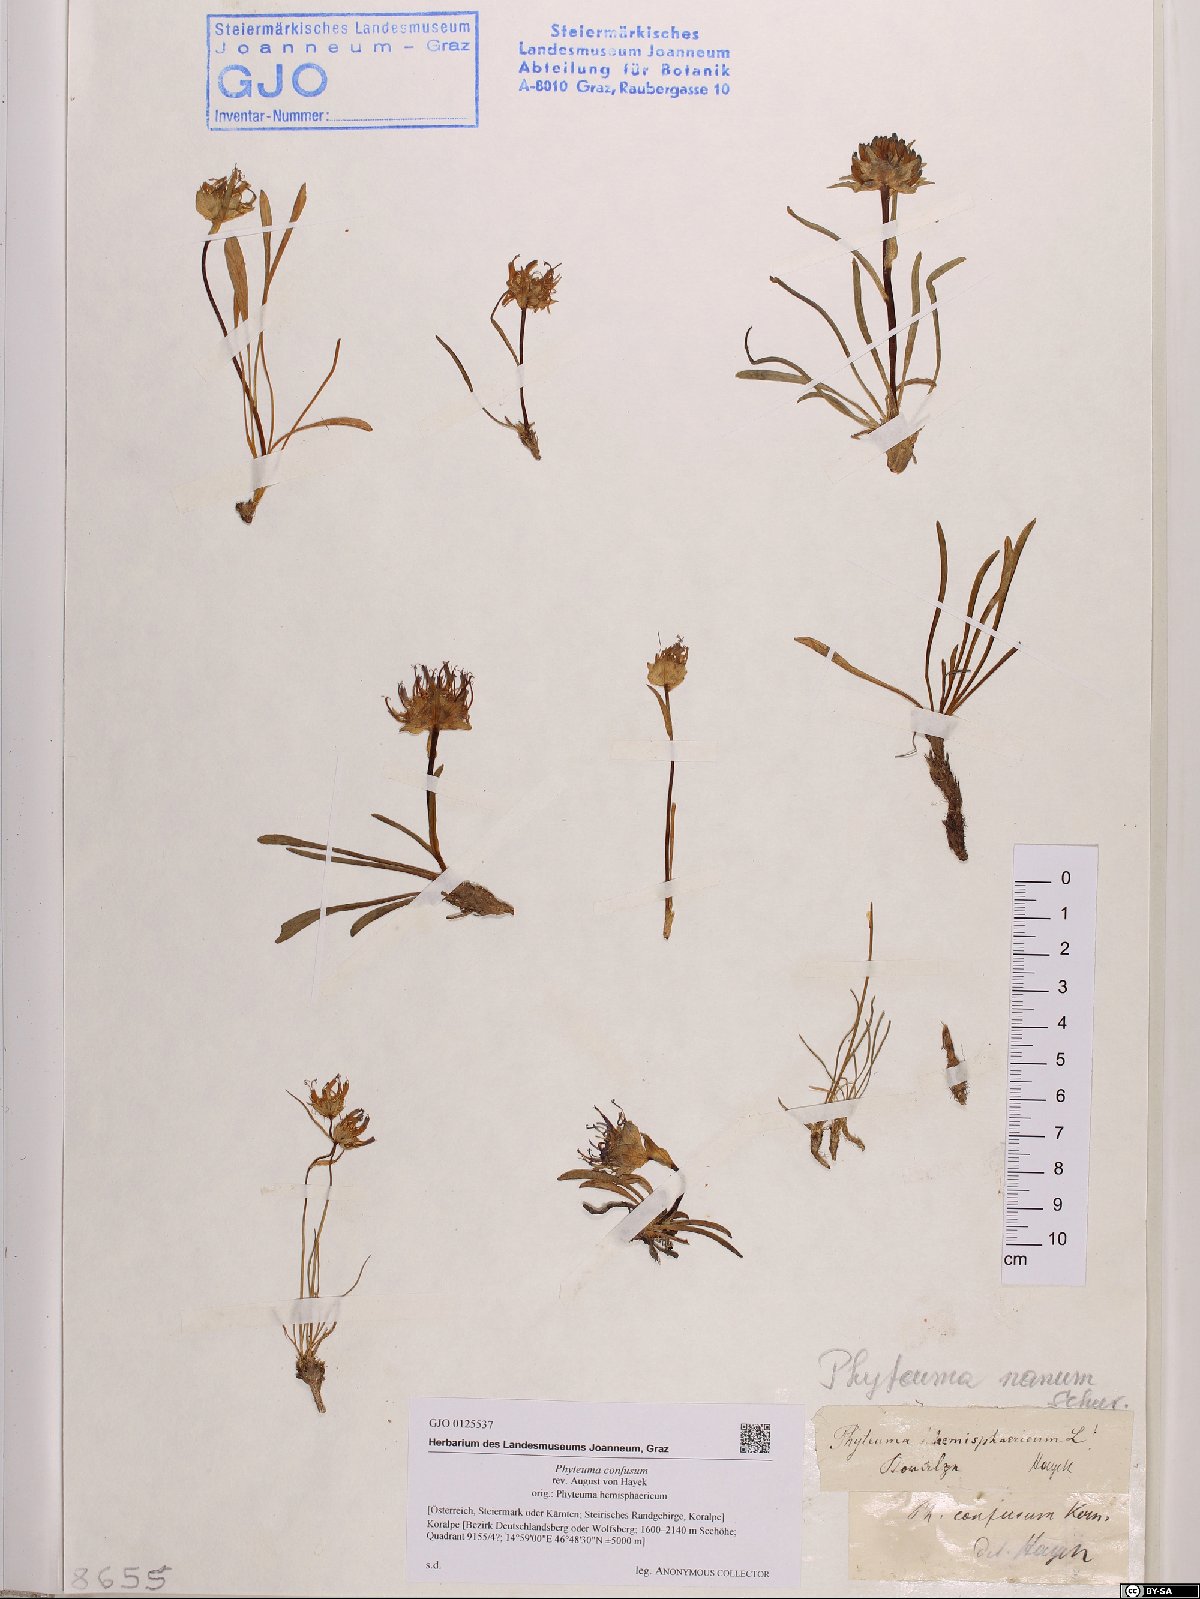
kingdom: Plantae
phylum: Tracheophyta
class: Magnoliopsida
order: Asterales
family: Campanulaceae
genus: Phyteuma
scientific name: Phyteuma confusum
